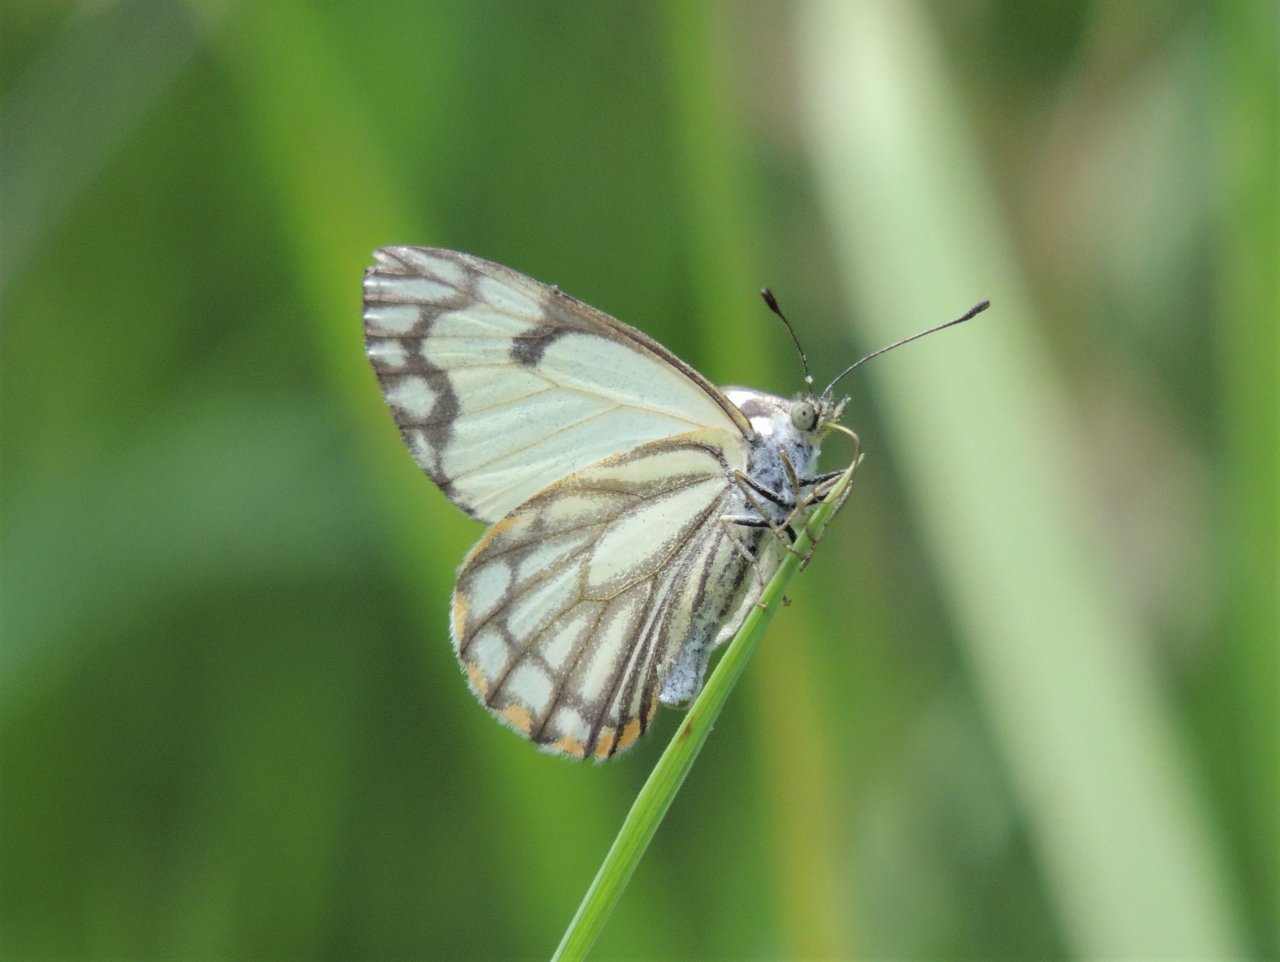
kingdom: Animalia
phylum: Arthropoda
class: Insecta
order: Lepidoptera
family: Pieridae
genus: Neophasia
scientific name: Neophasia menapia
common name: Pine White
